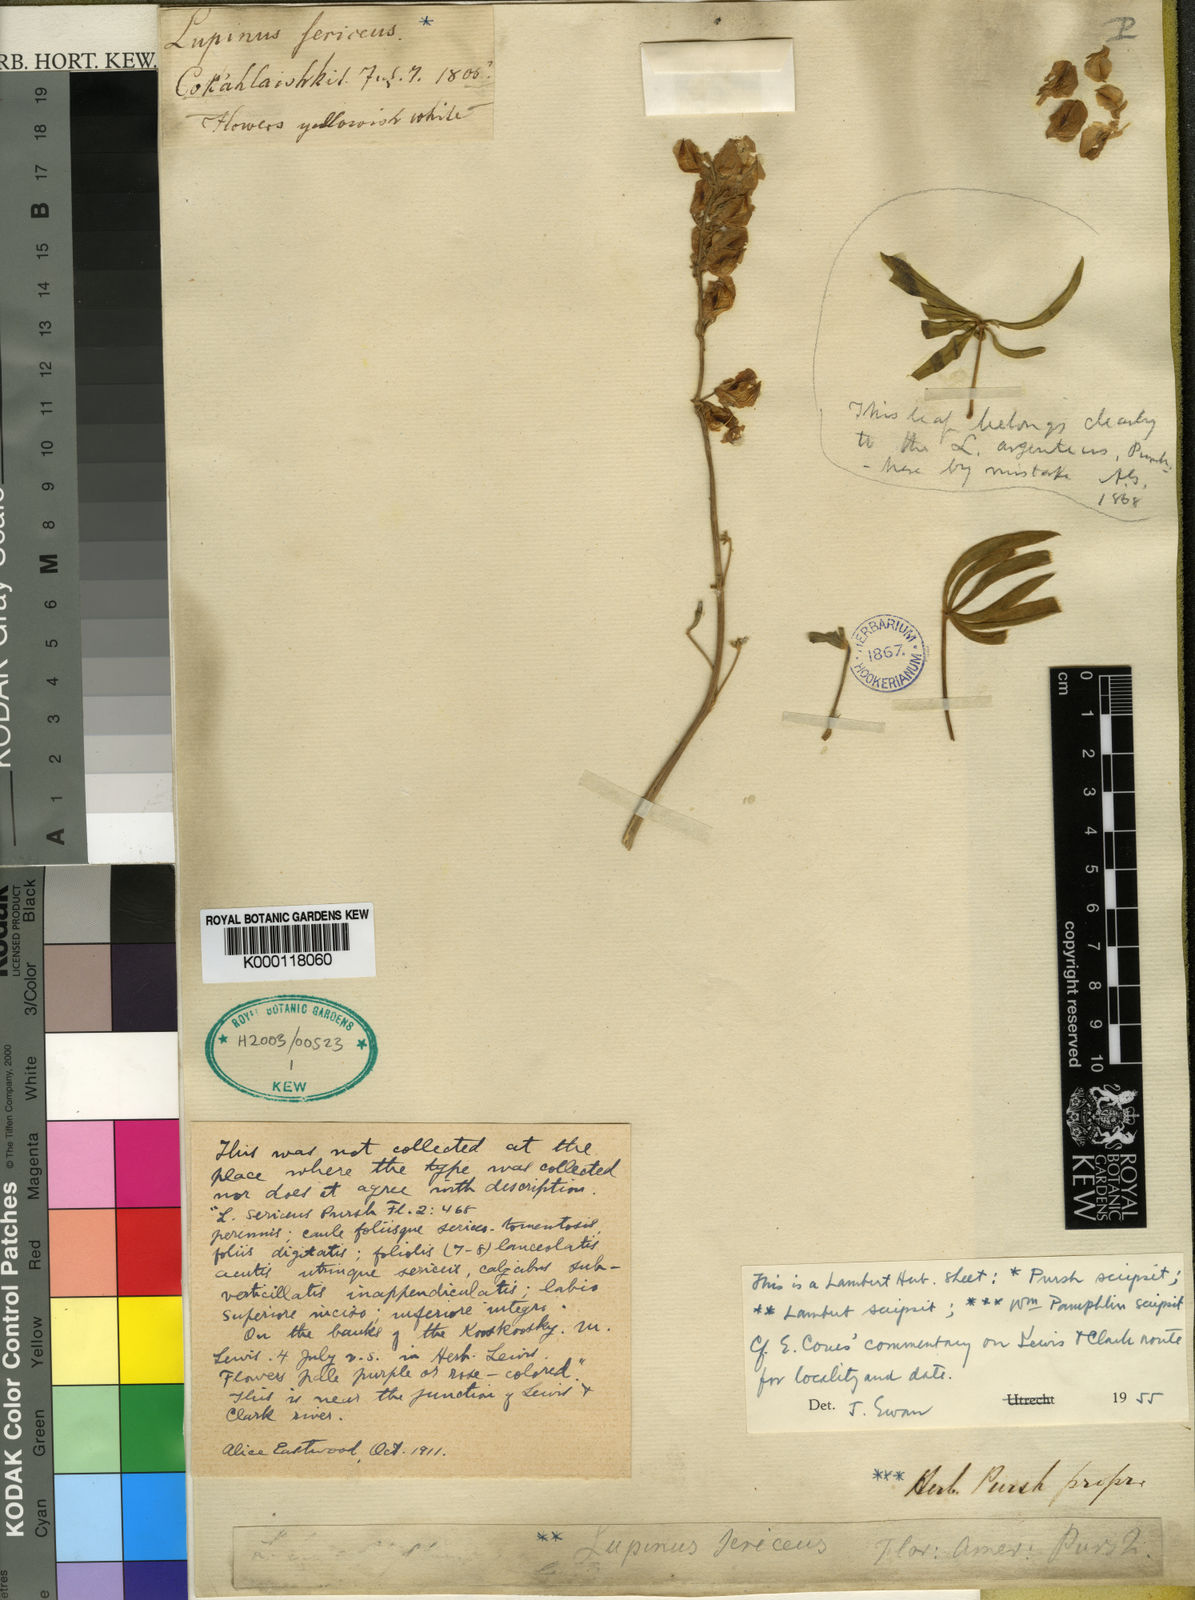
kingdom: Plantae
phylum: Tracheophyta
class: Magnoliopsida
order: Fabales
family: Fabaceae
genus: Lupinus
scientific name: Lupinus sericeus
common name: Silky lupine
